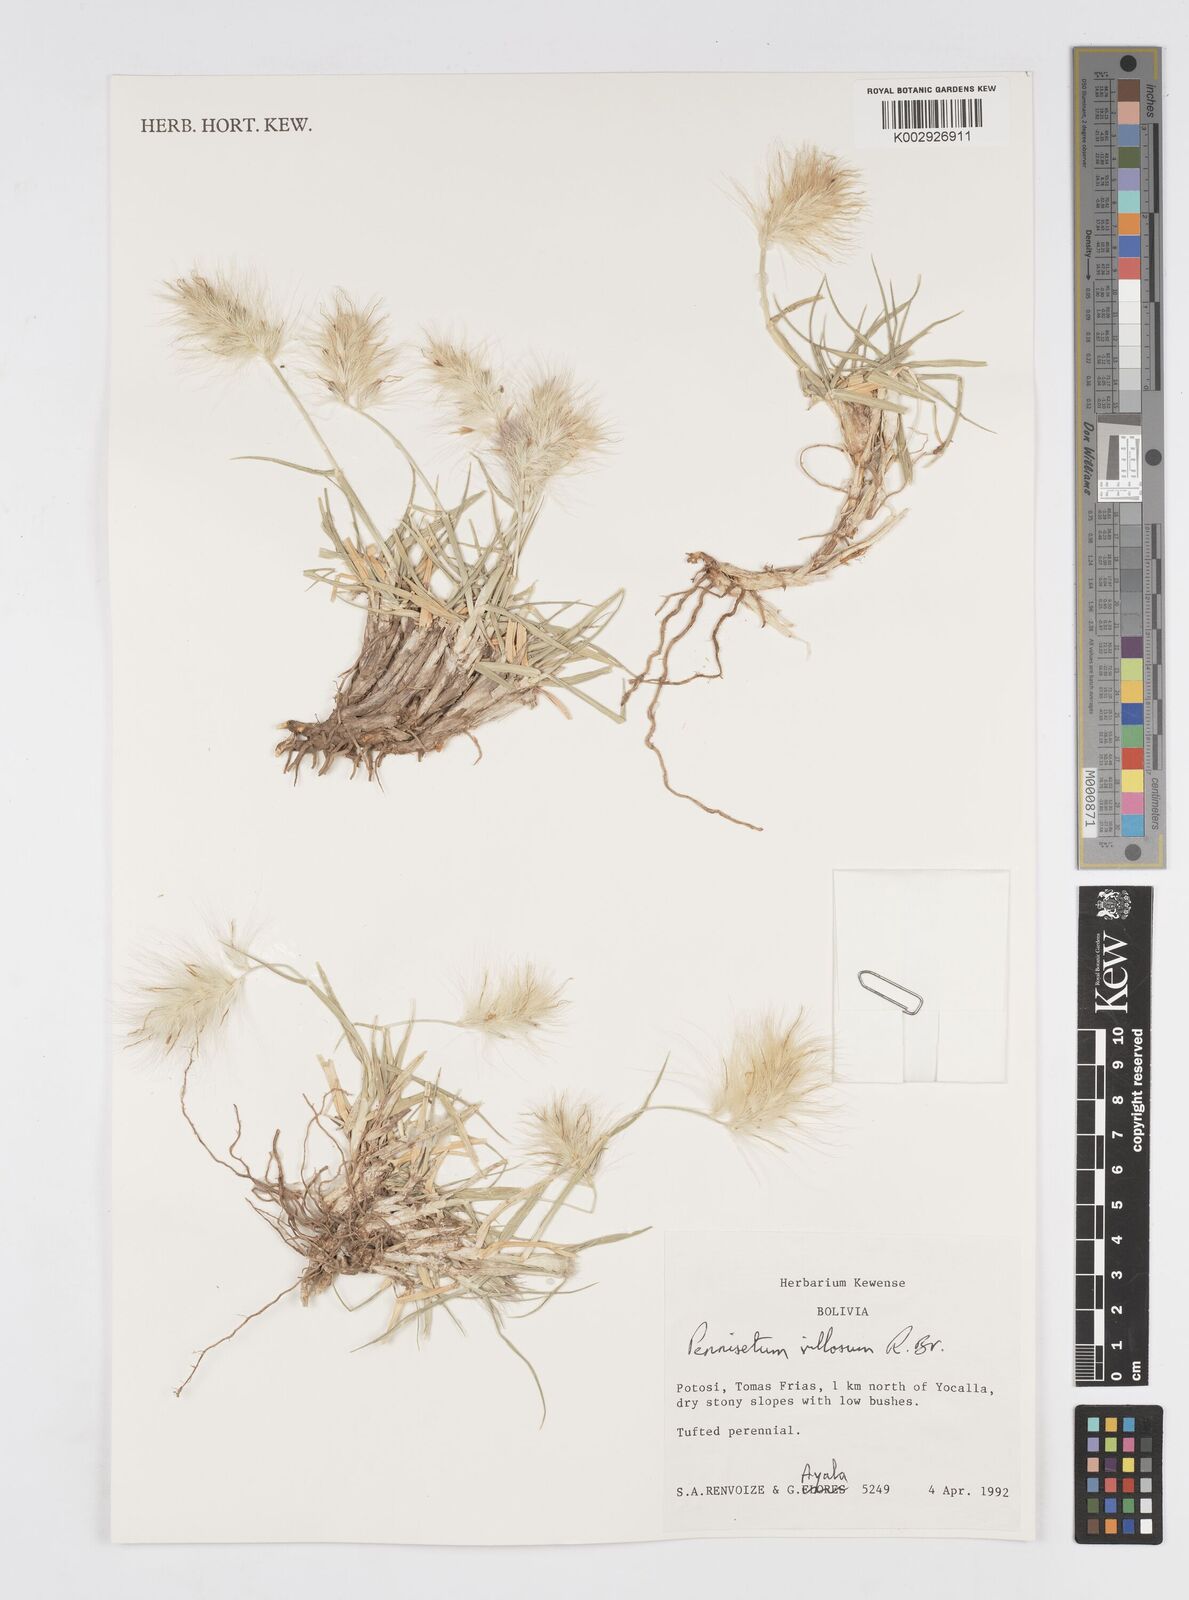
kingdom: Plantae
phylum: Tracheophyta
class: Liliopsida
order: Poales
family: Poaceae
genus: Cenchrus
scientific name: Cenchrus longisetus
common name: Feathertop
